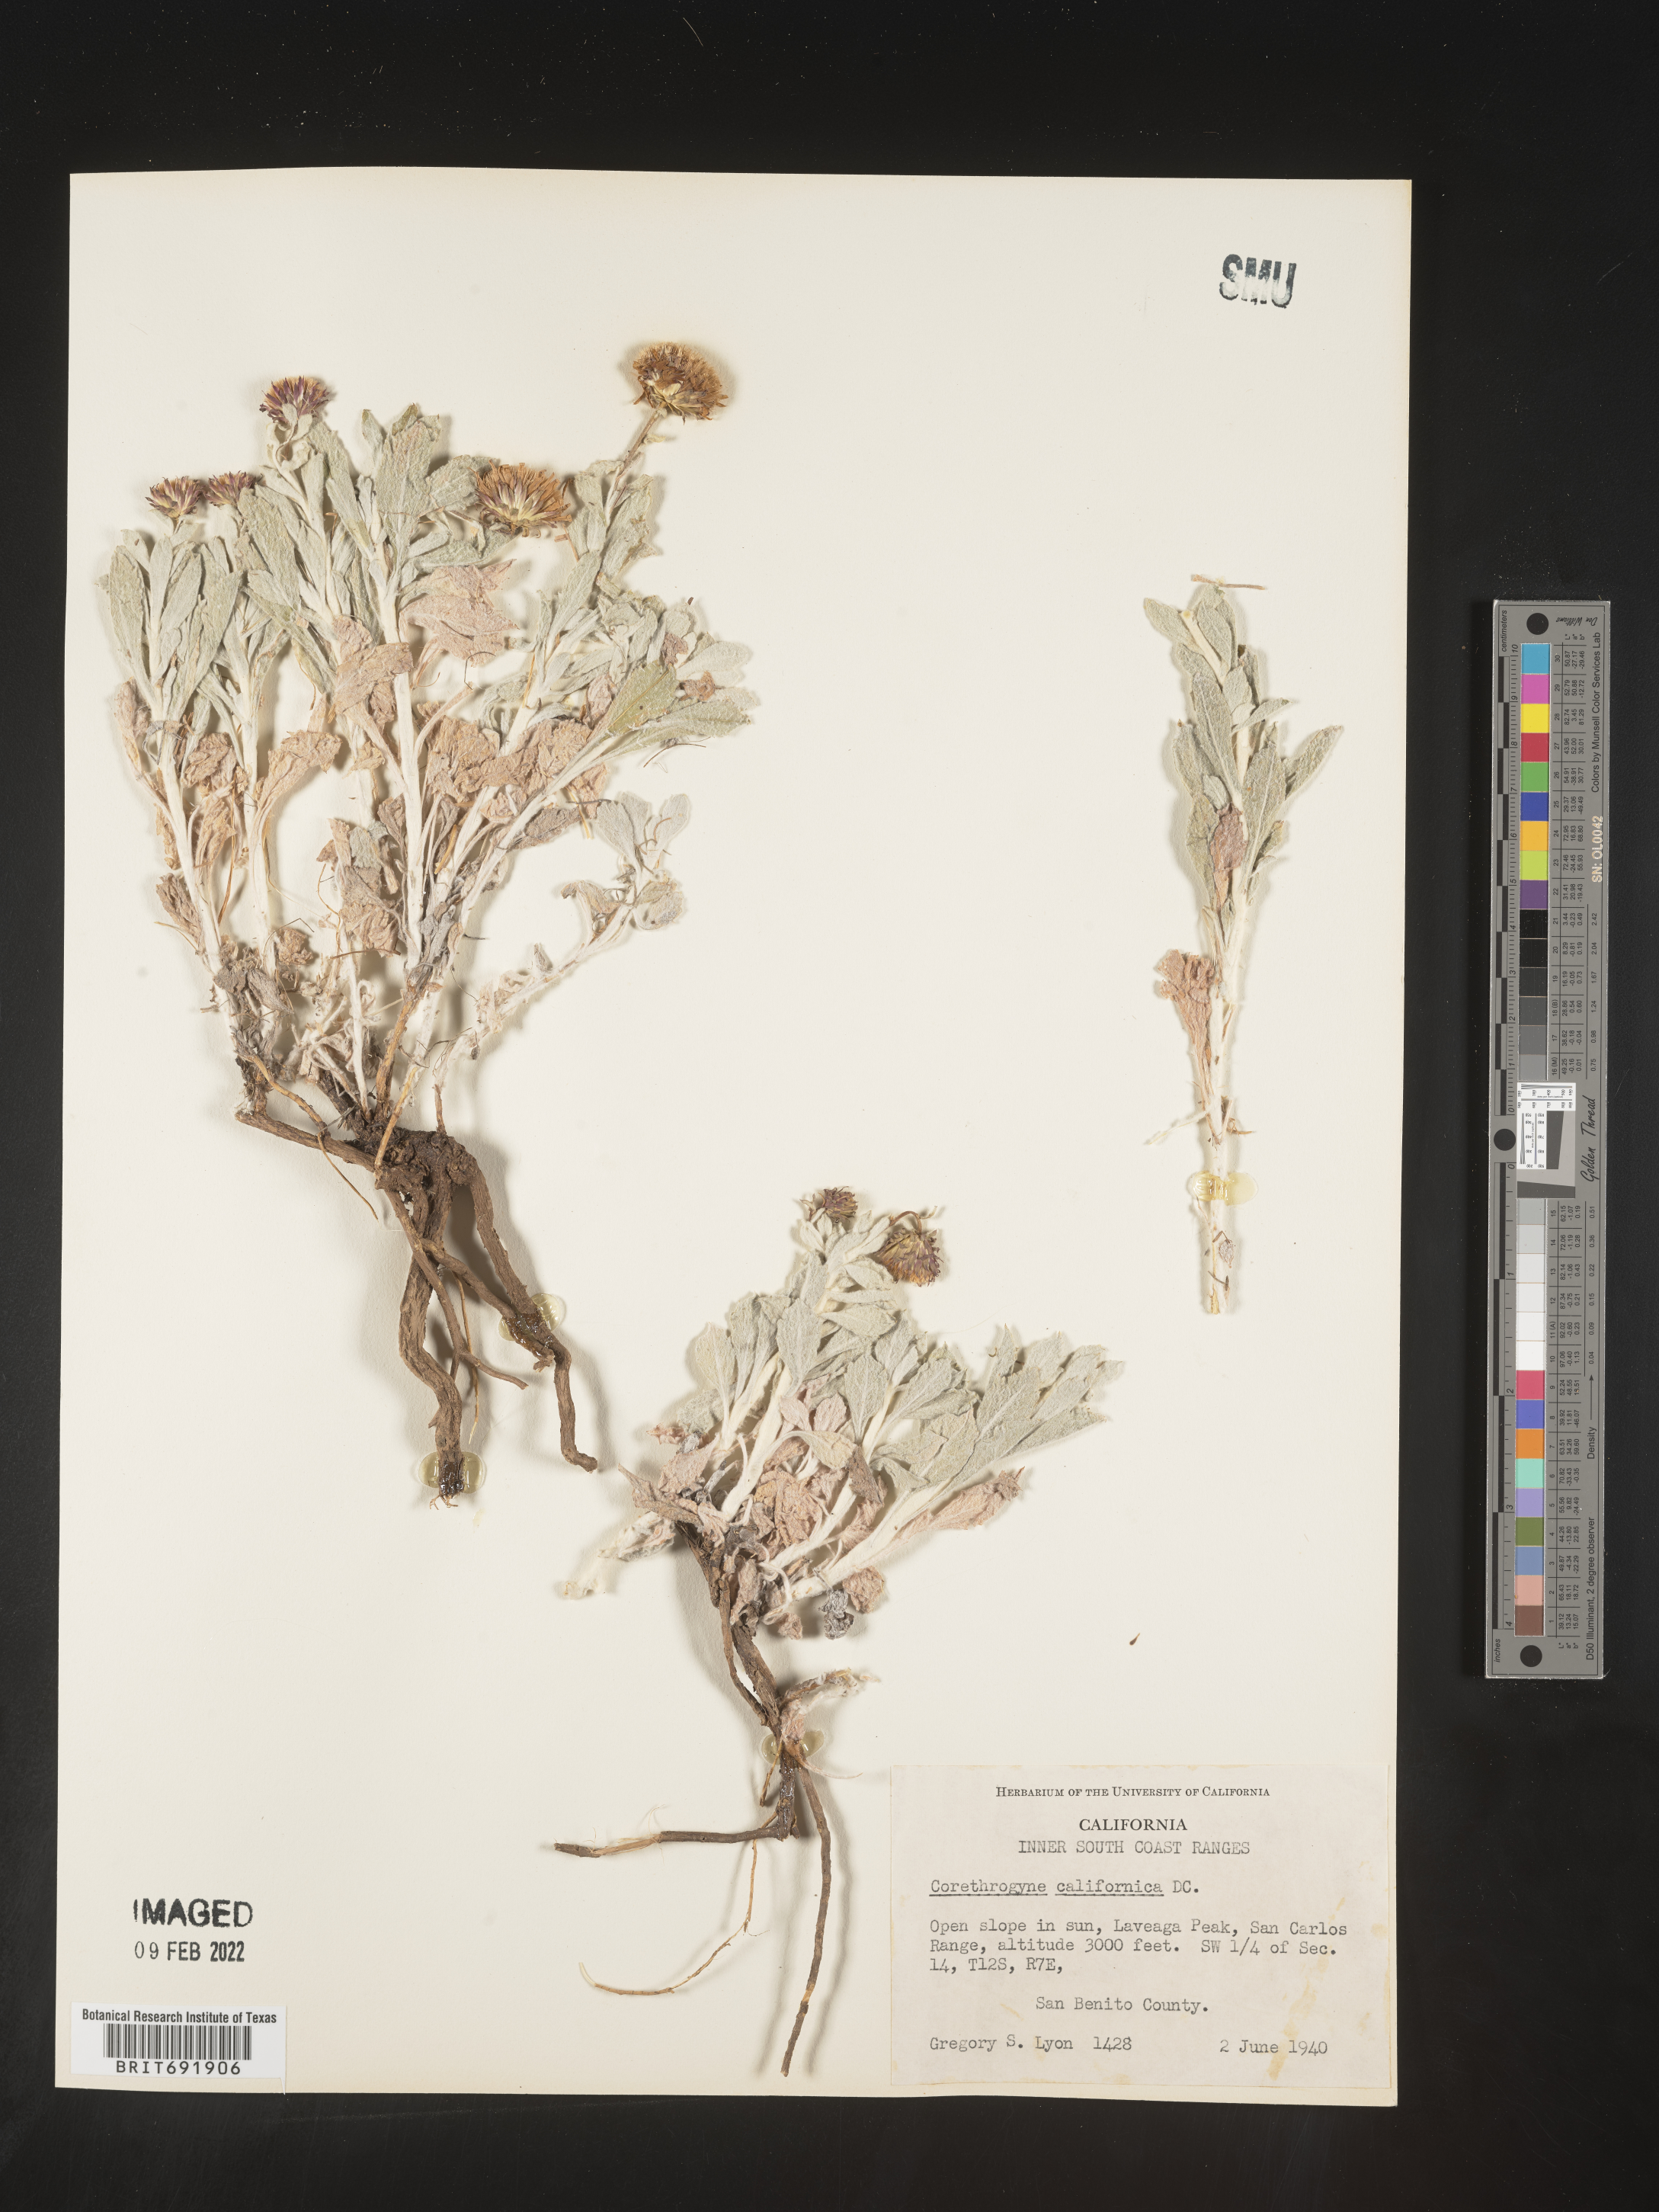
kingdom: Plantae
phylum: Tracheophyta
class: Magnoliopsida
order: Asterales
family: Asteraceae
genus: Corethrogyne
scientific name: Corethrogyne
